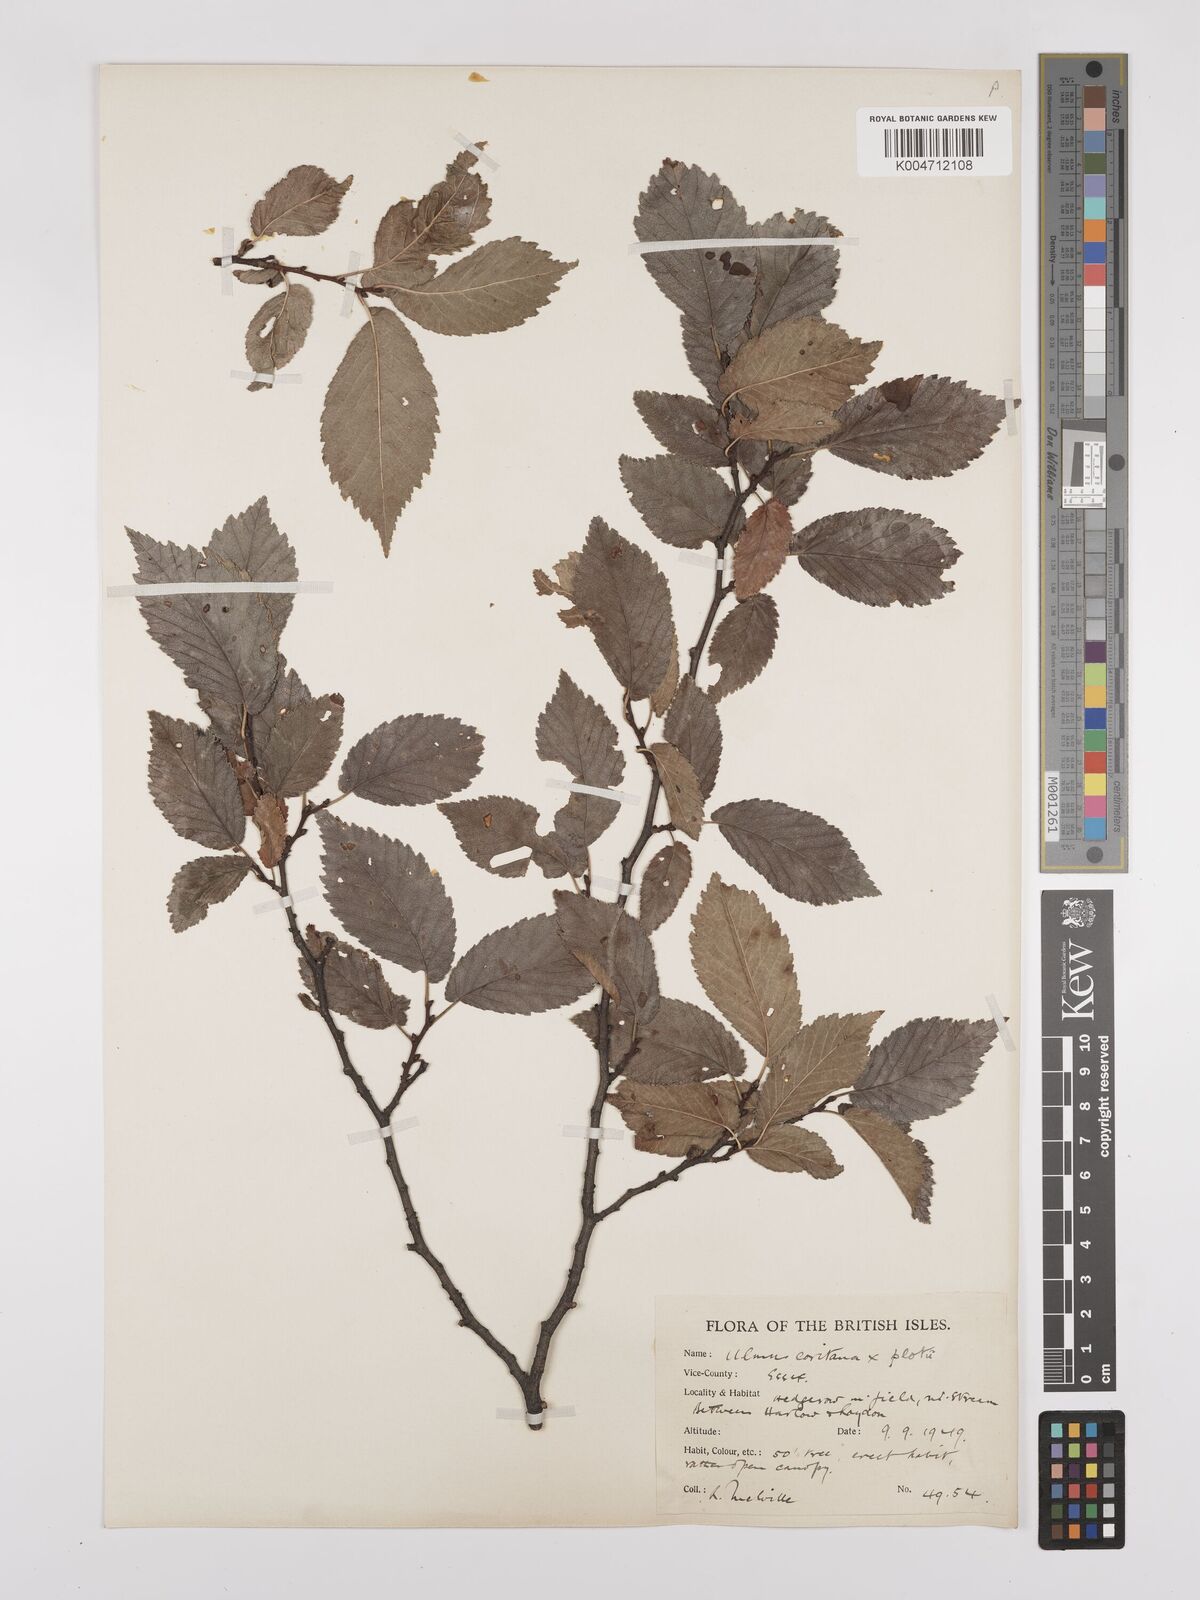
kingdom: Plantae
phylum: Tracheophyta
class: Magnoliopsida
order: Rosales
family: Ulmaceae
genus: Ulmus
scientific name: Ulmus minor
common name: Small-leaved elm
